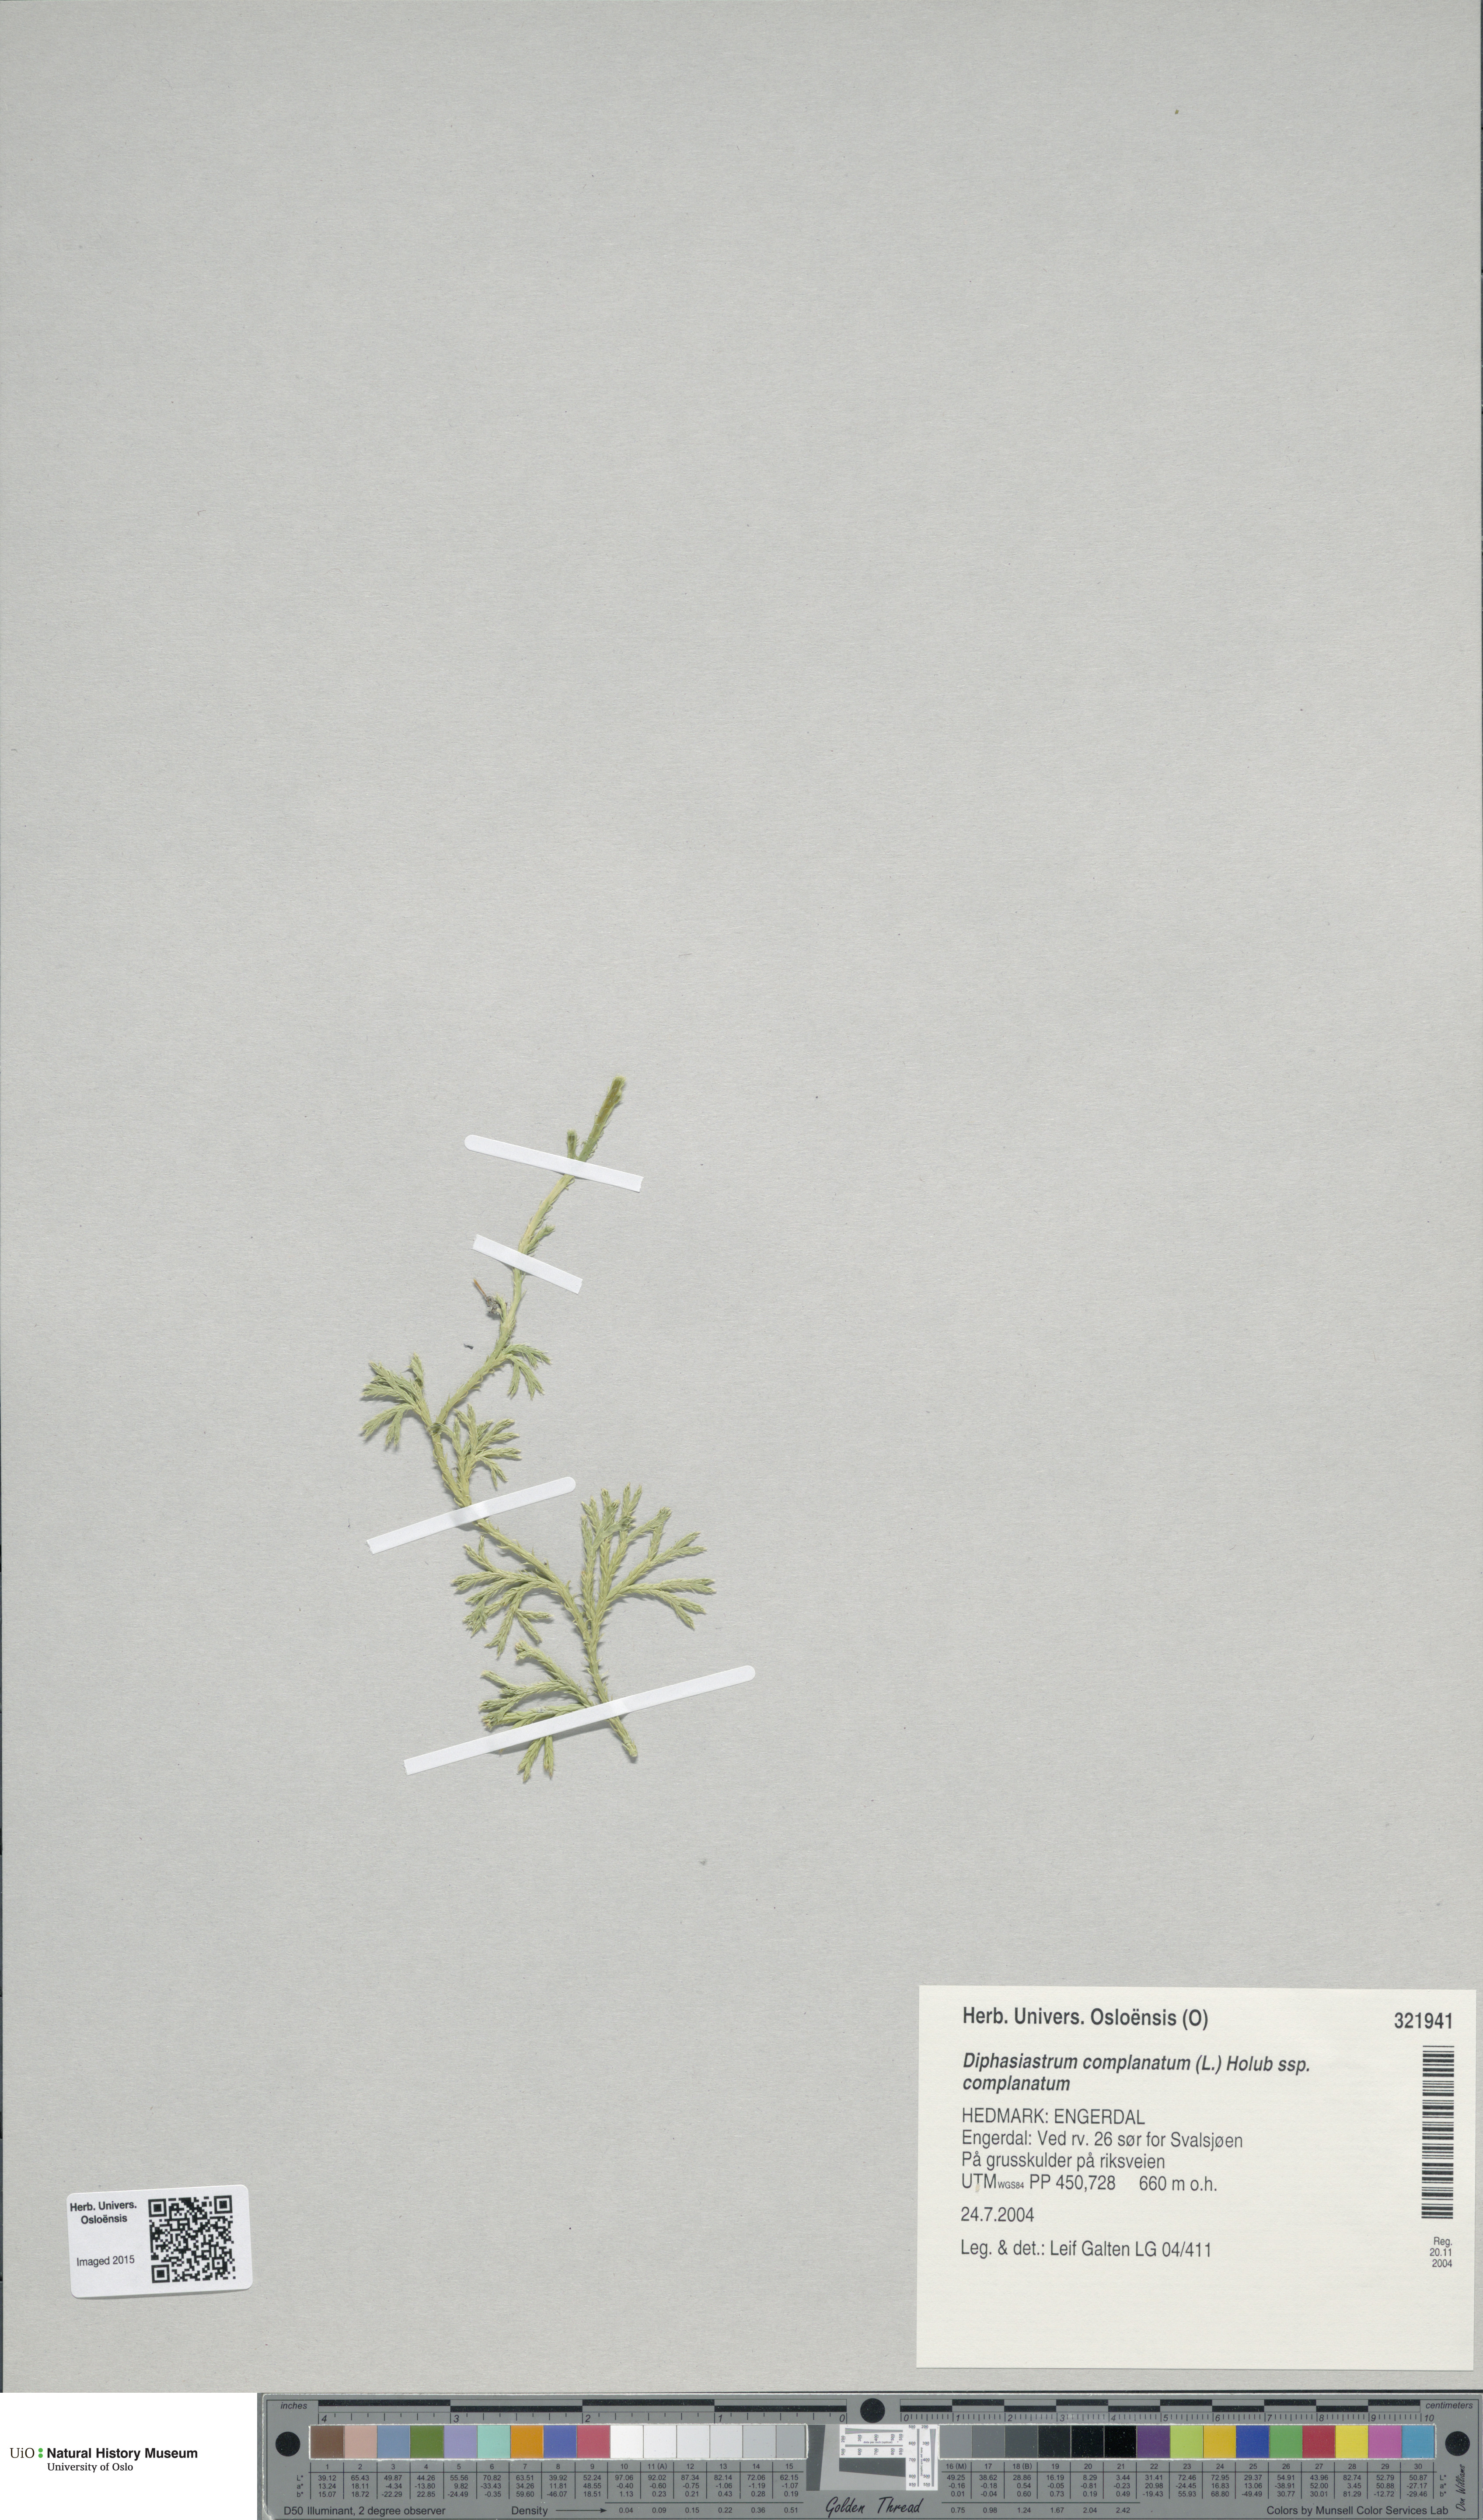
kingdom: Plantae
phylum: Tracheophyta
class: Lycopodiopsida
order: Lycopodiales
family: Lycopodiaceae
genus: Diphasiastrum
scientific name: Diphasiastrum complanatum
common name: Northern running-pine
